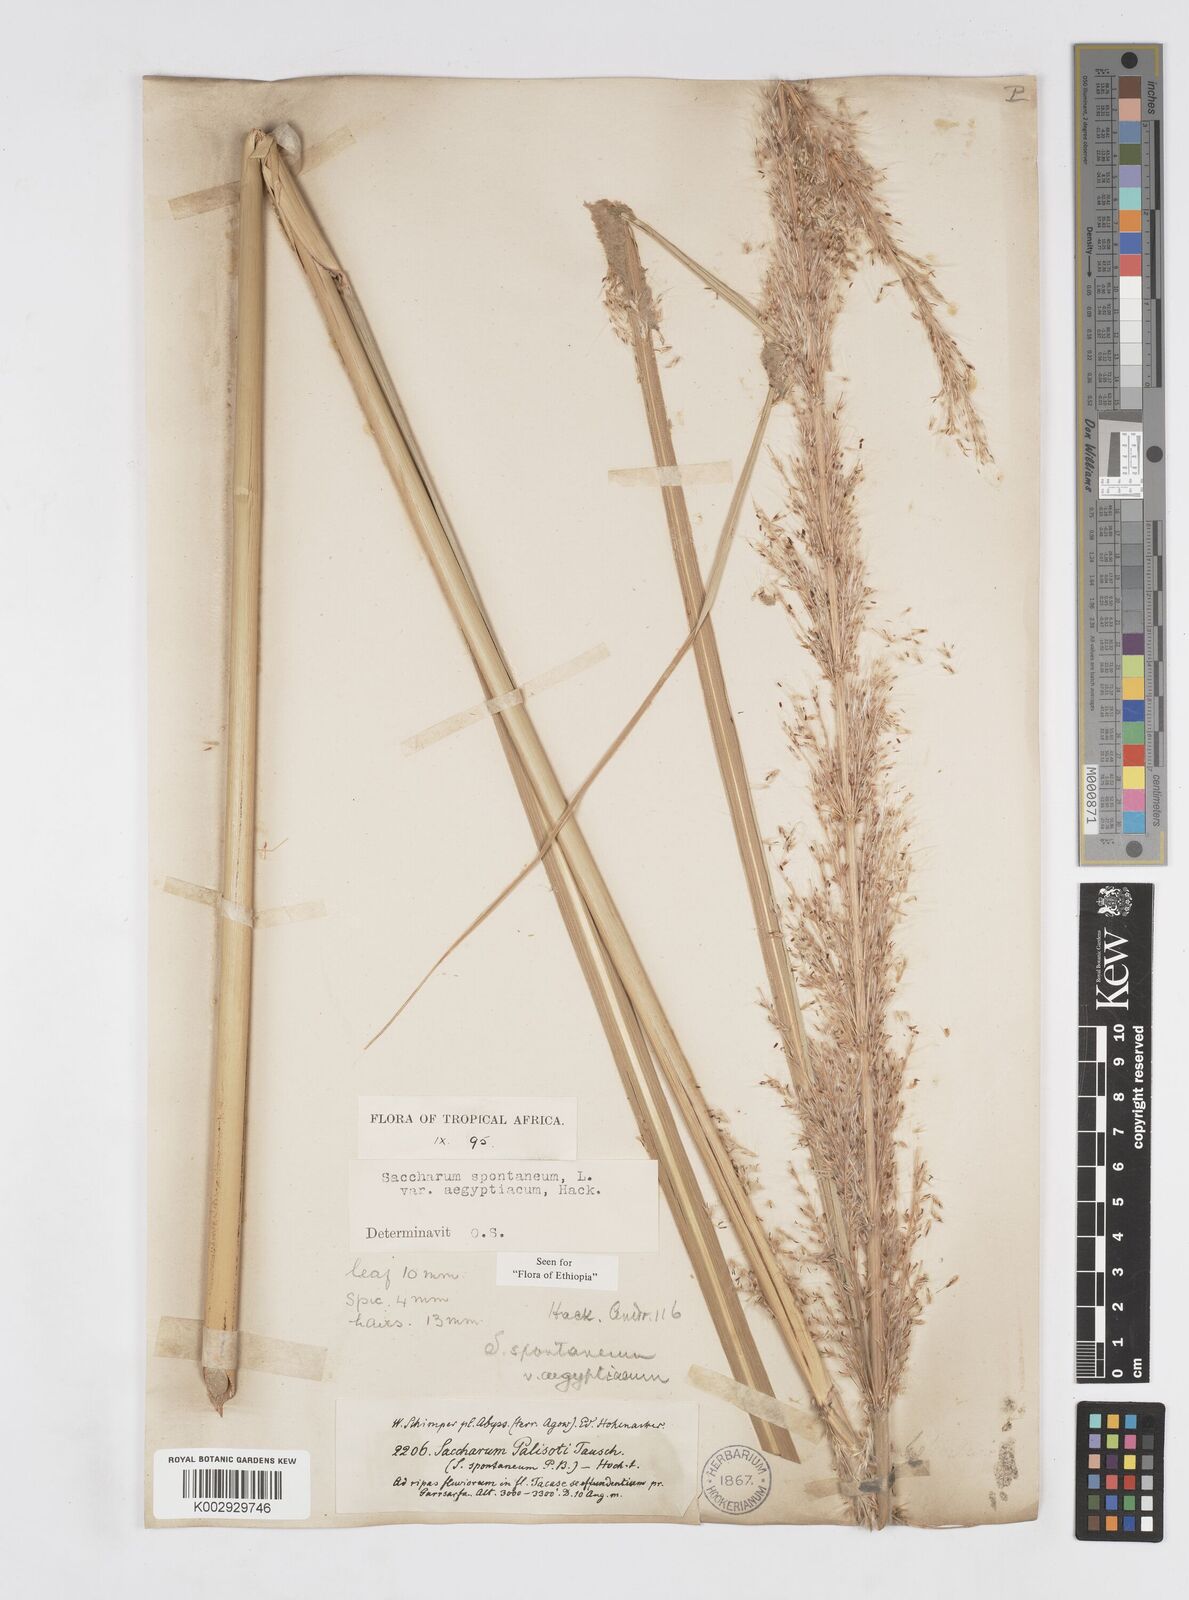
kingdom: Plantae
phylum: Tracheophyta
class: Liliopsida
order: Poales
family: Poaceae
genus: Saccharum
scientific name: Saccharum spontaneum
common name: Wild sugarcane
